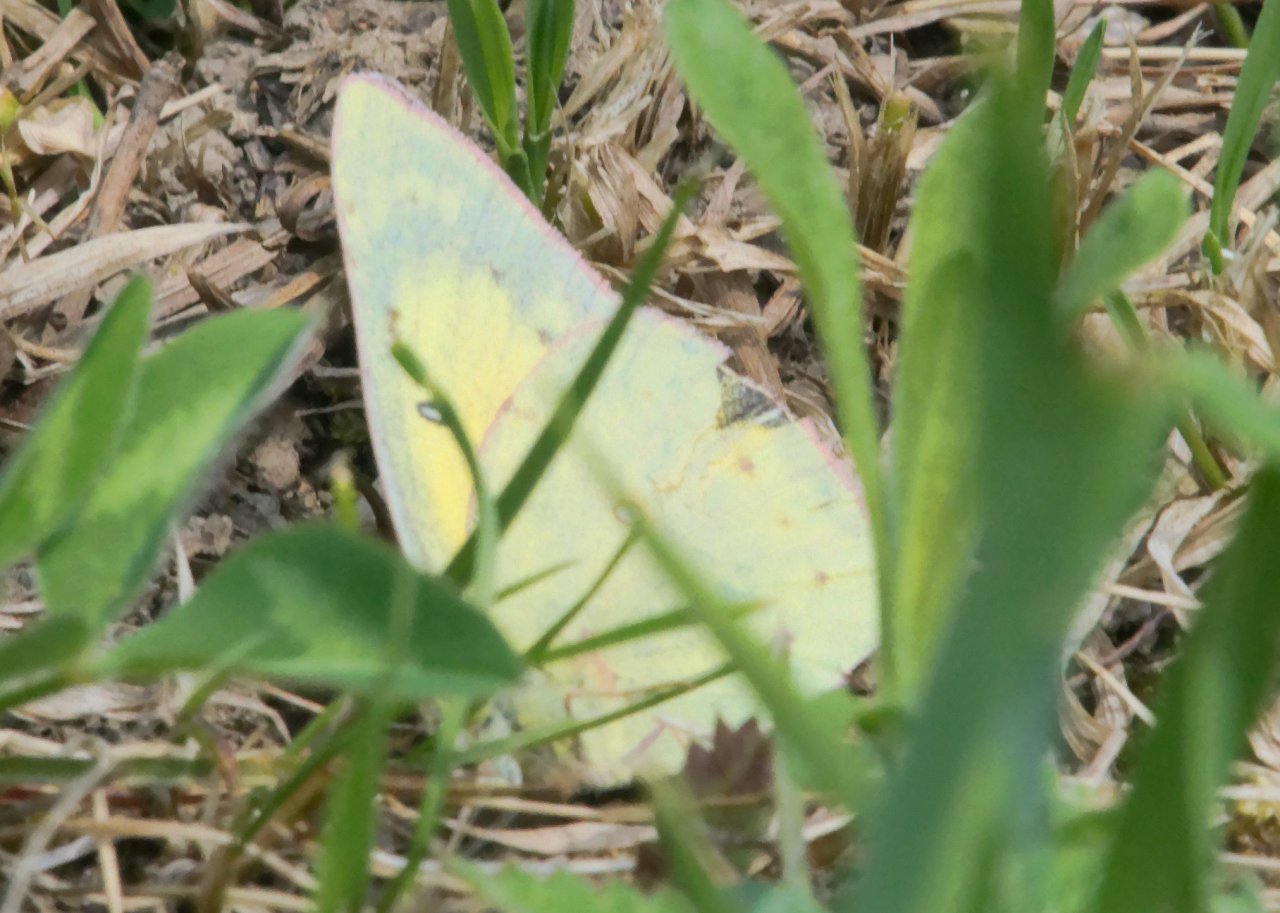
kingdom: Animalia
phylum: Arthropoda
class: Insecta
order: Lepidoptera
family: Pieridae
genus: Colias
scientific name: Colias eurytheme
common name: Orange Sulphur
